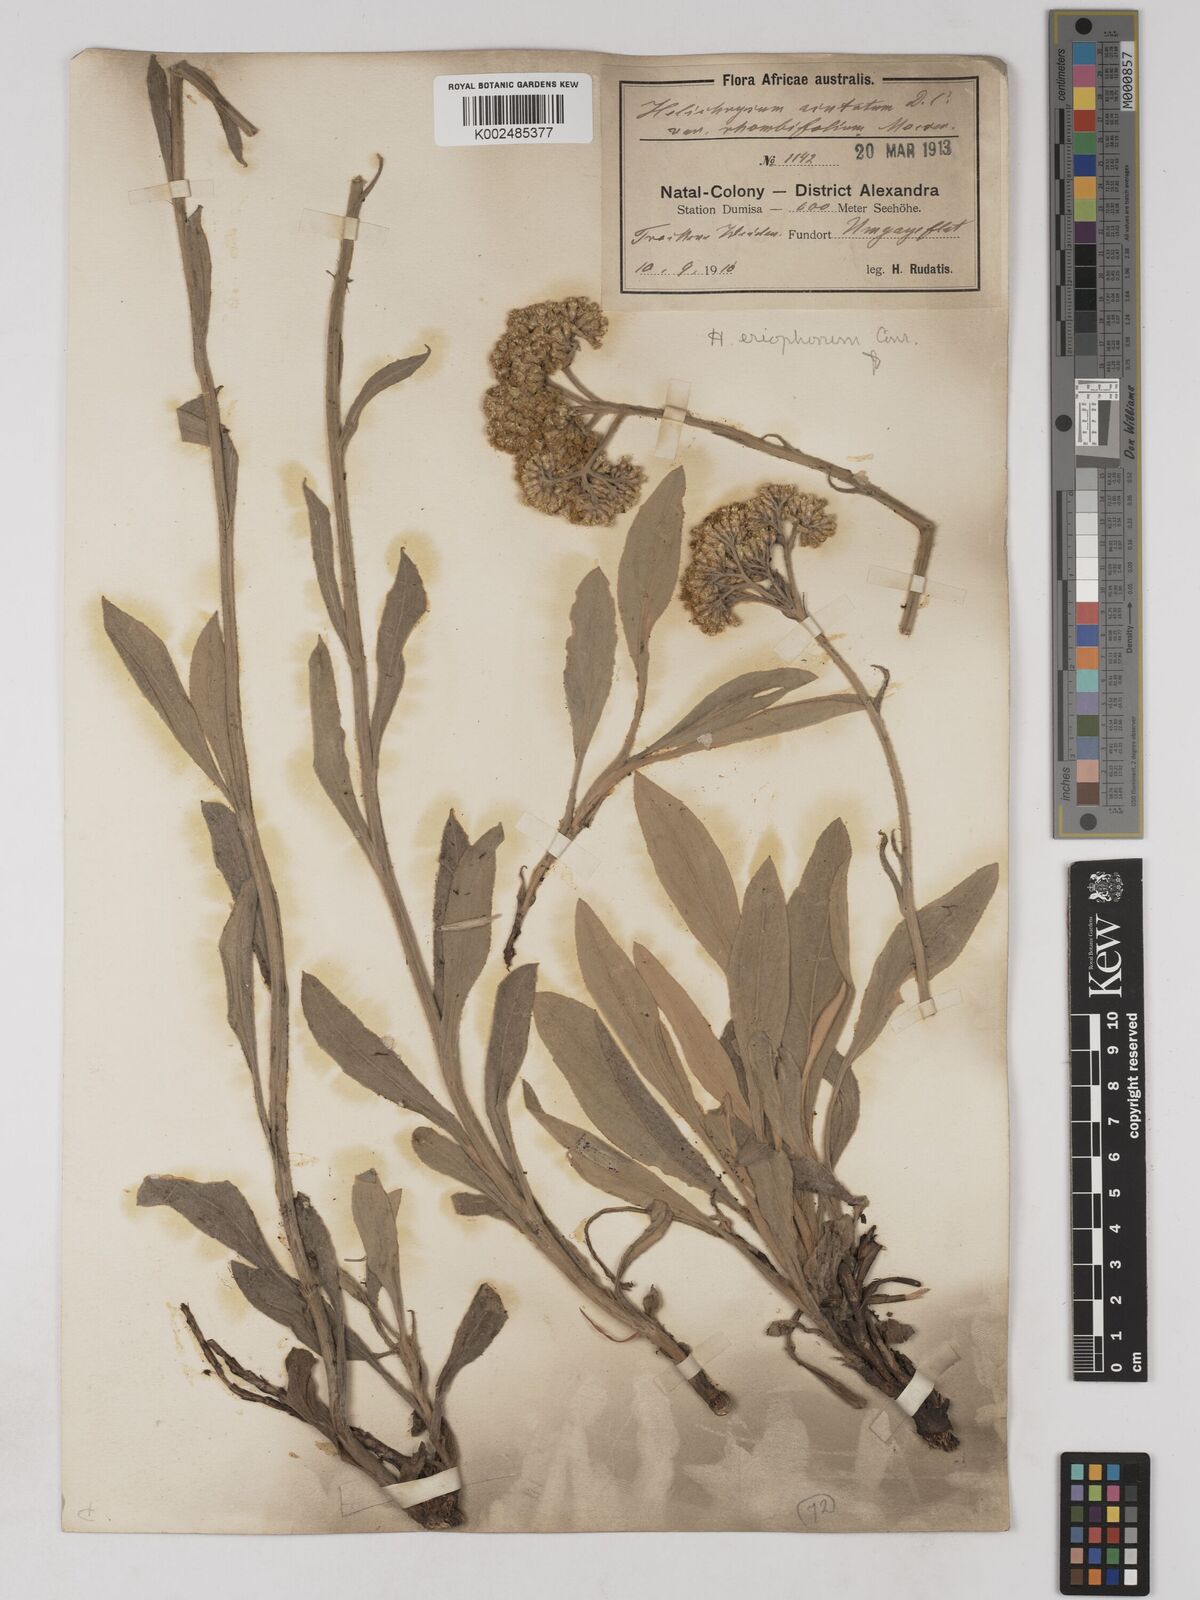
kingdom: Plantae
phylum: Tracheophyta
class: Magnoliopsida
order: Asterales
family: Asteraceae
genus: Helichrysum
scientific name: Helichrysum acutatum
